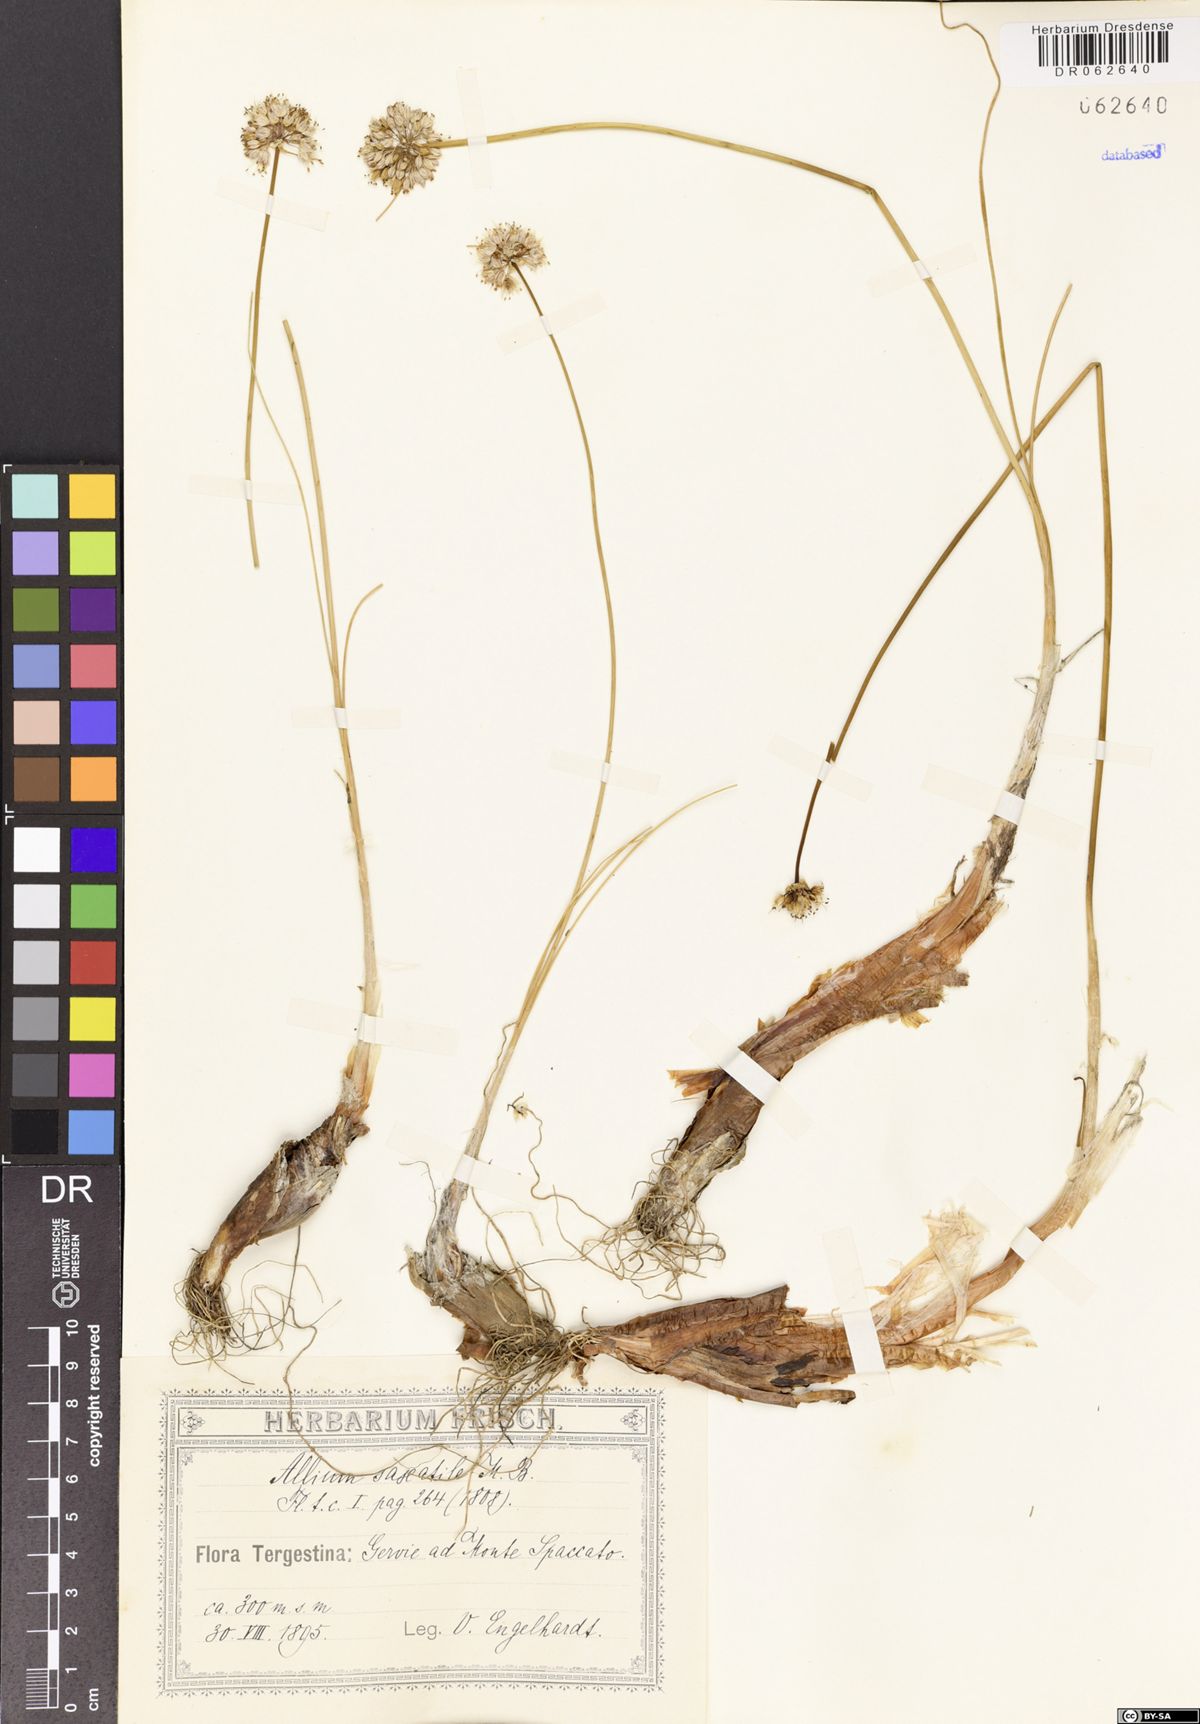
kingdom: Plantae
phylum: Tracheophyta
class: Liliopsida
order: Asparagales
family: Amaryllidaceae
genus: Allium
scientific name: Allium saxatile
